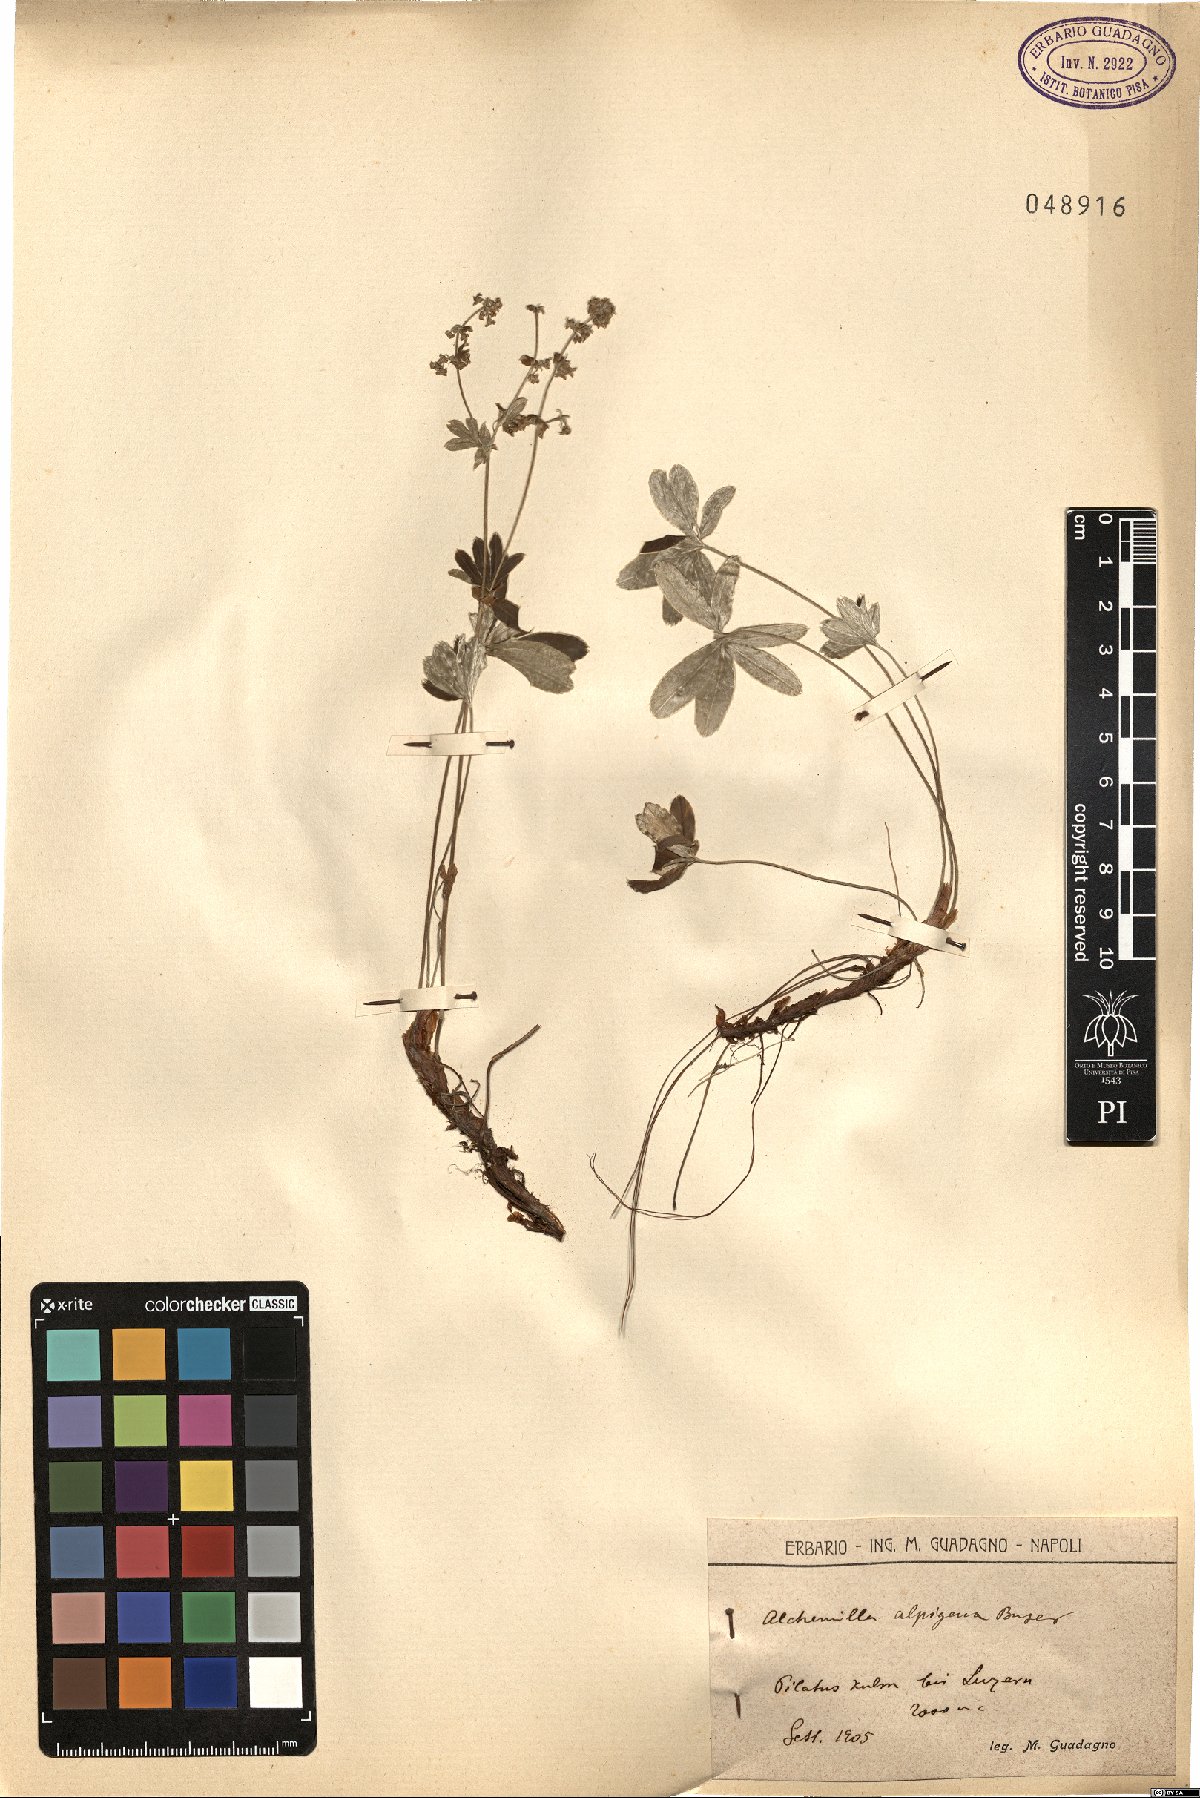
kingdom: Plantae
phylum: Tracheophyta
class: Magnoliopsida
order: Rosales
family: Rosaceae
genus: Alchemilla
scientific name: Alchemilla alpigena
